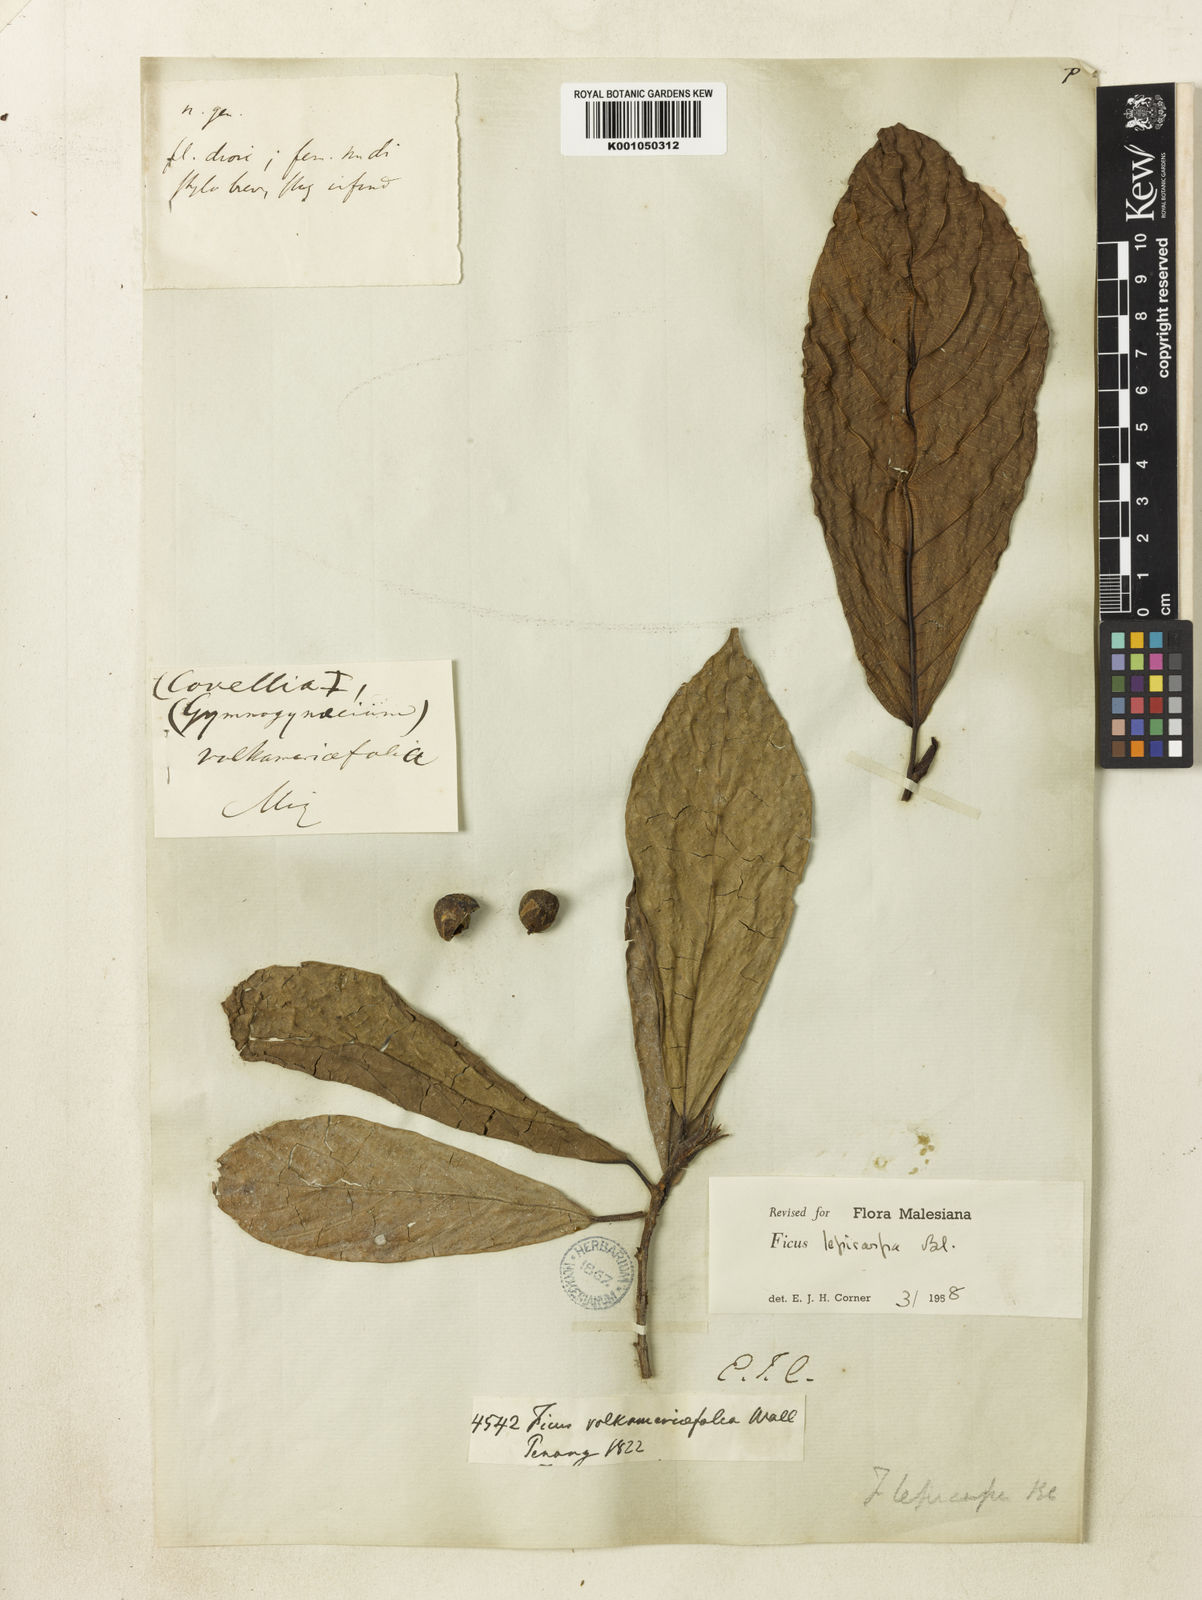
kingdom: Plantae
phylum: Tracheophyta
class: Magnoliopsida
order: Rosales
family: Moraceae
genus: Ficus
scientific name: Ficus lepicarpa
